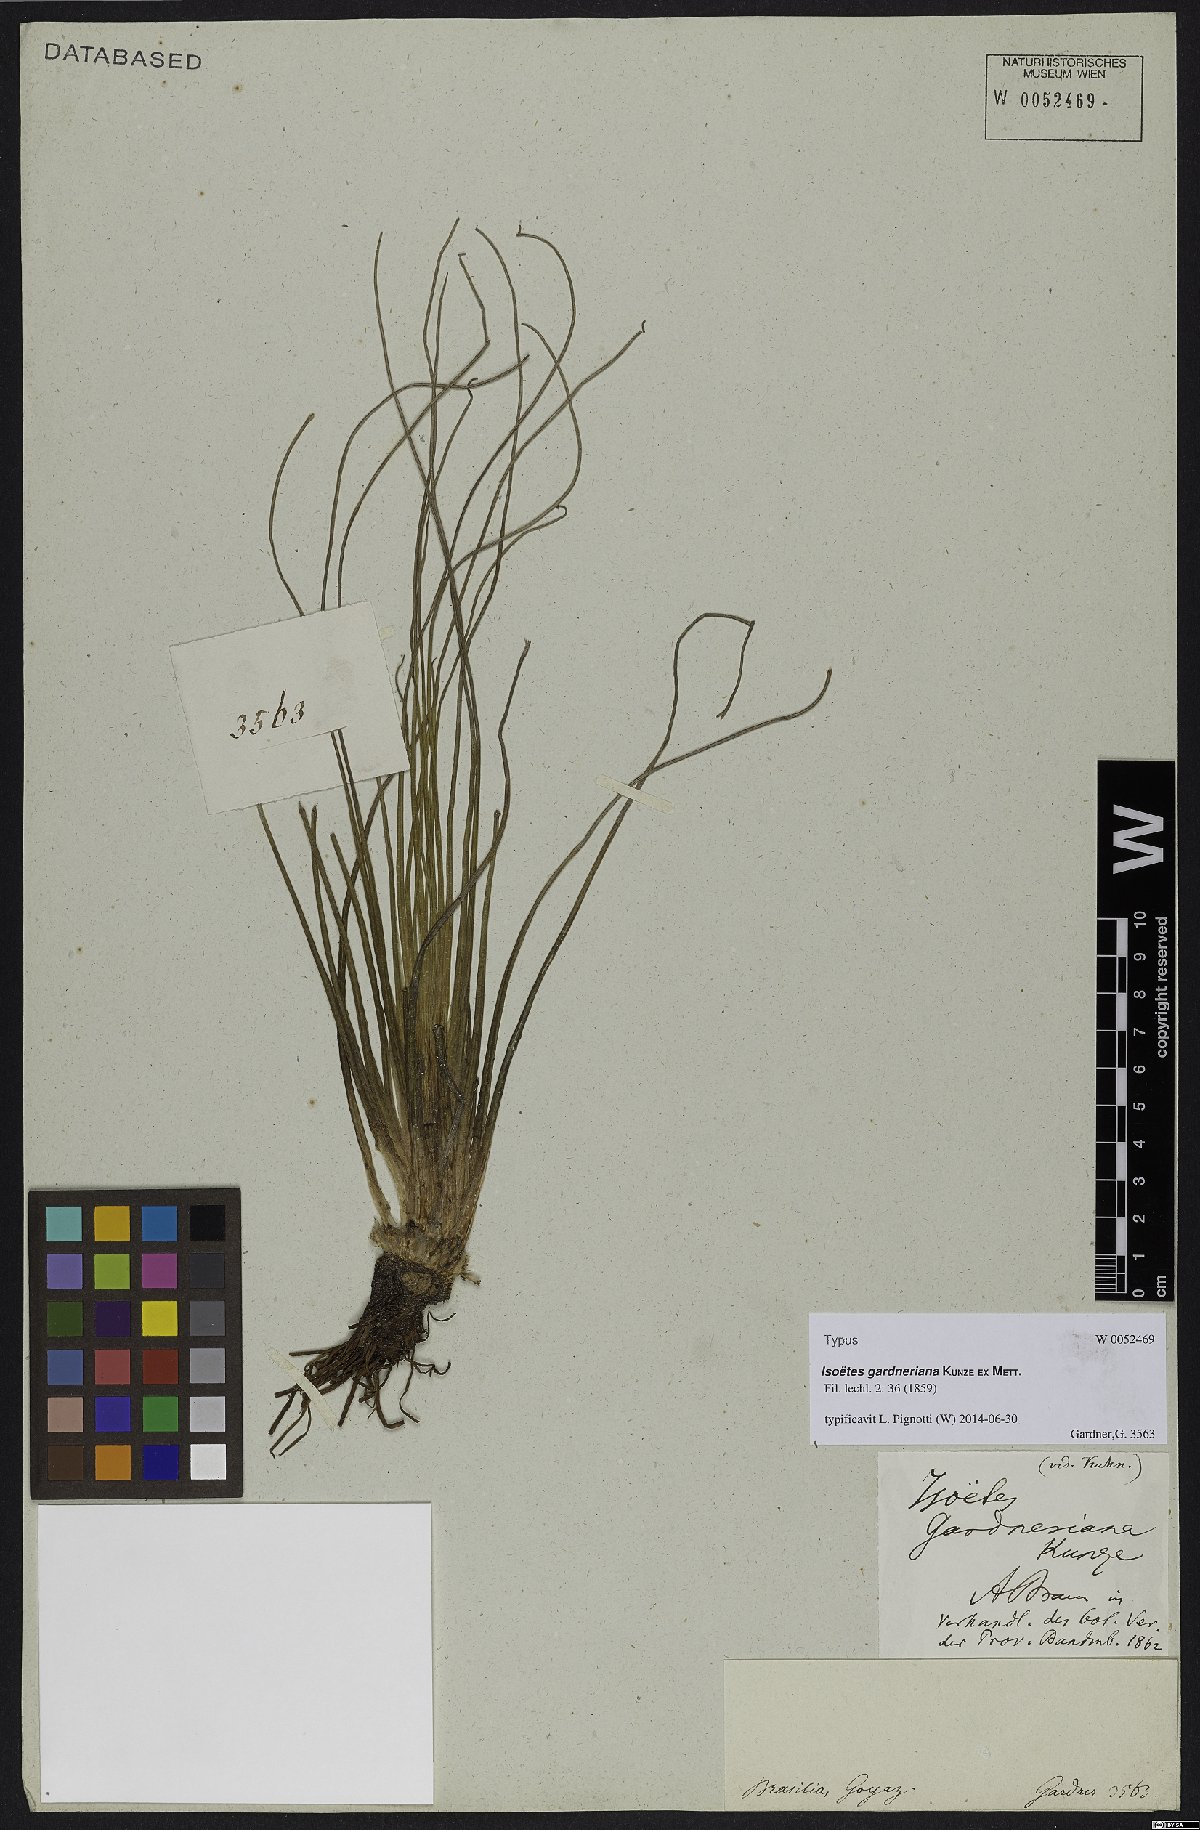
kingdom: Plantae
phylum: Tracheophyta
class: Lycopodiopsida
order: Isoetales
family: Isoetaceae
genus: Isoetes
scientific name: Isoetes gardneriana
